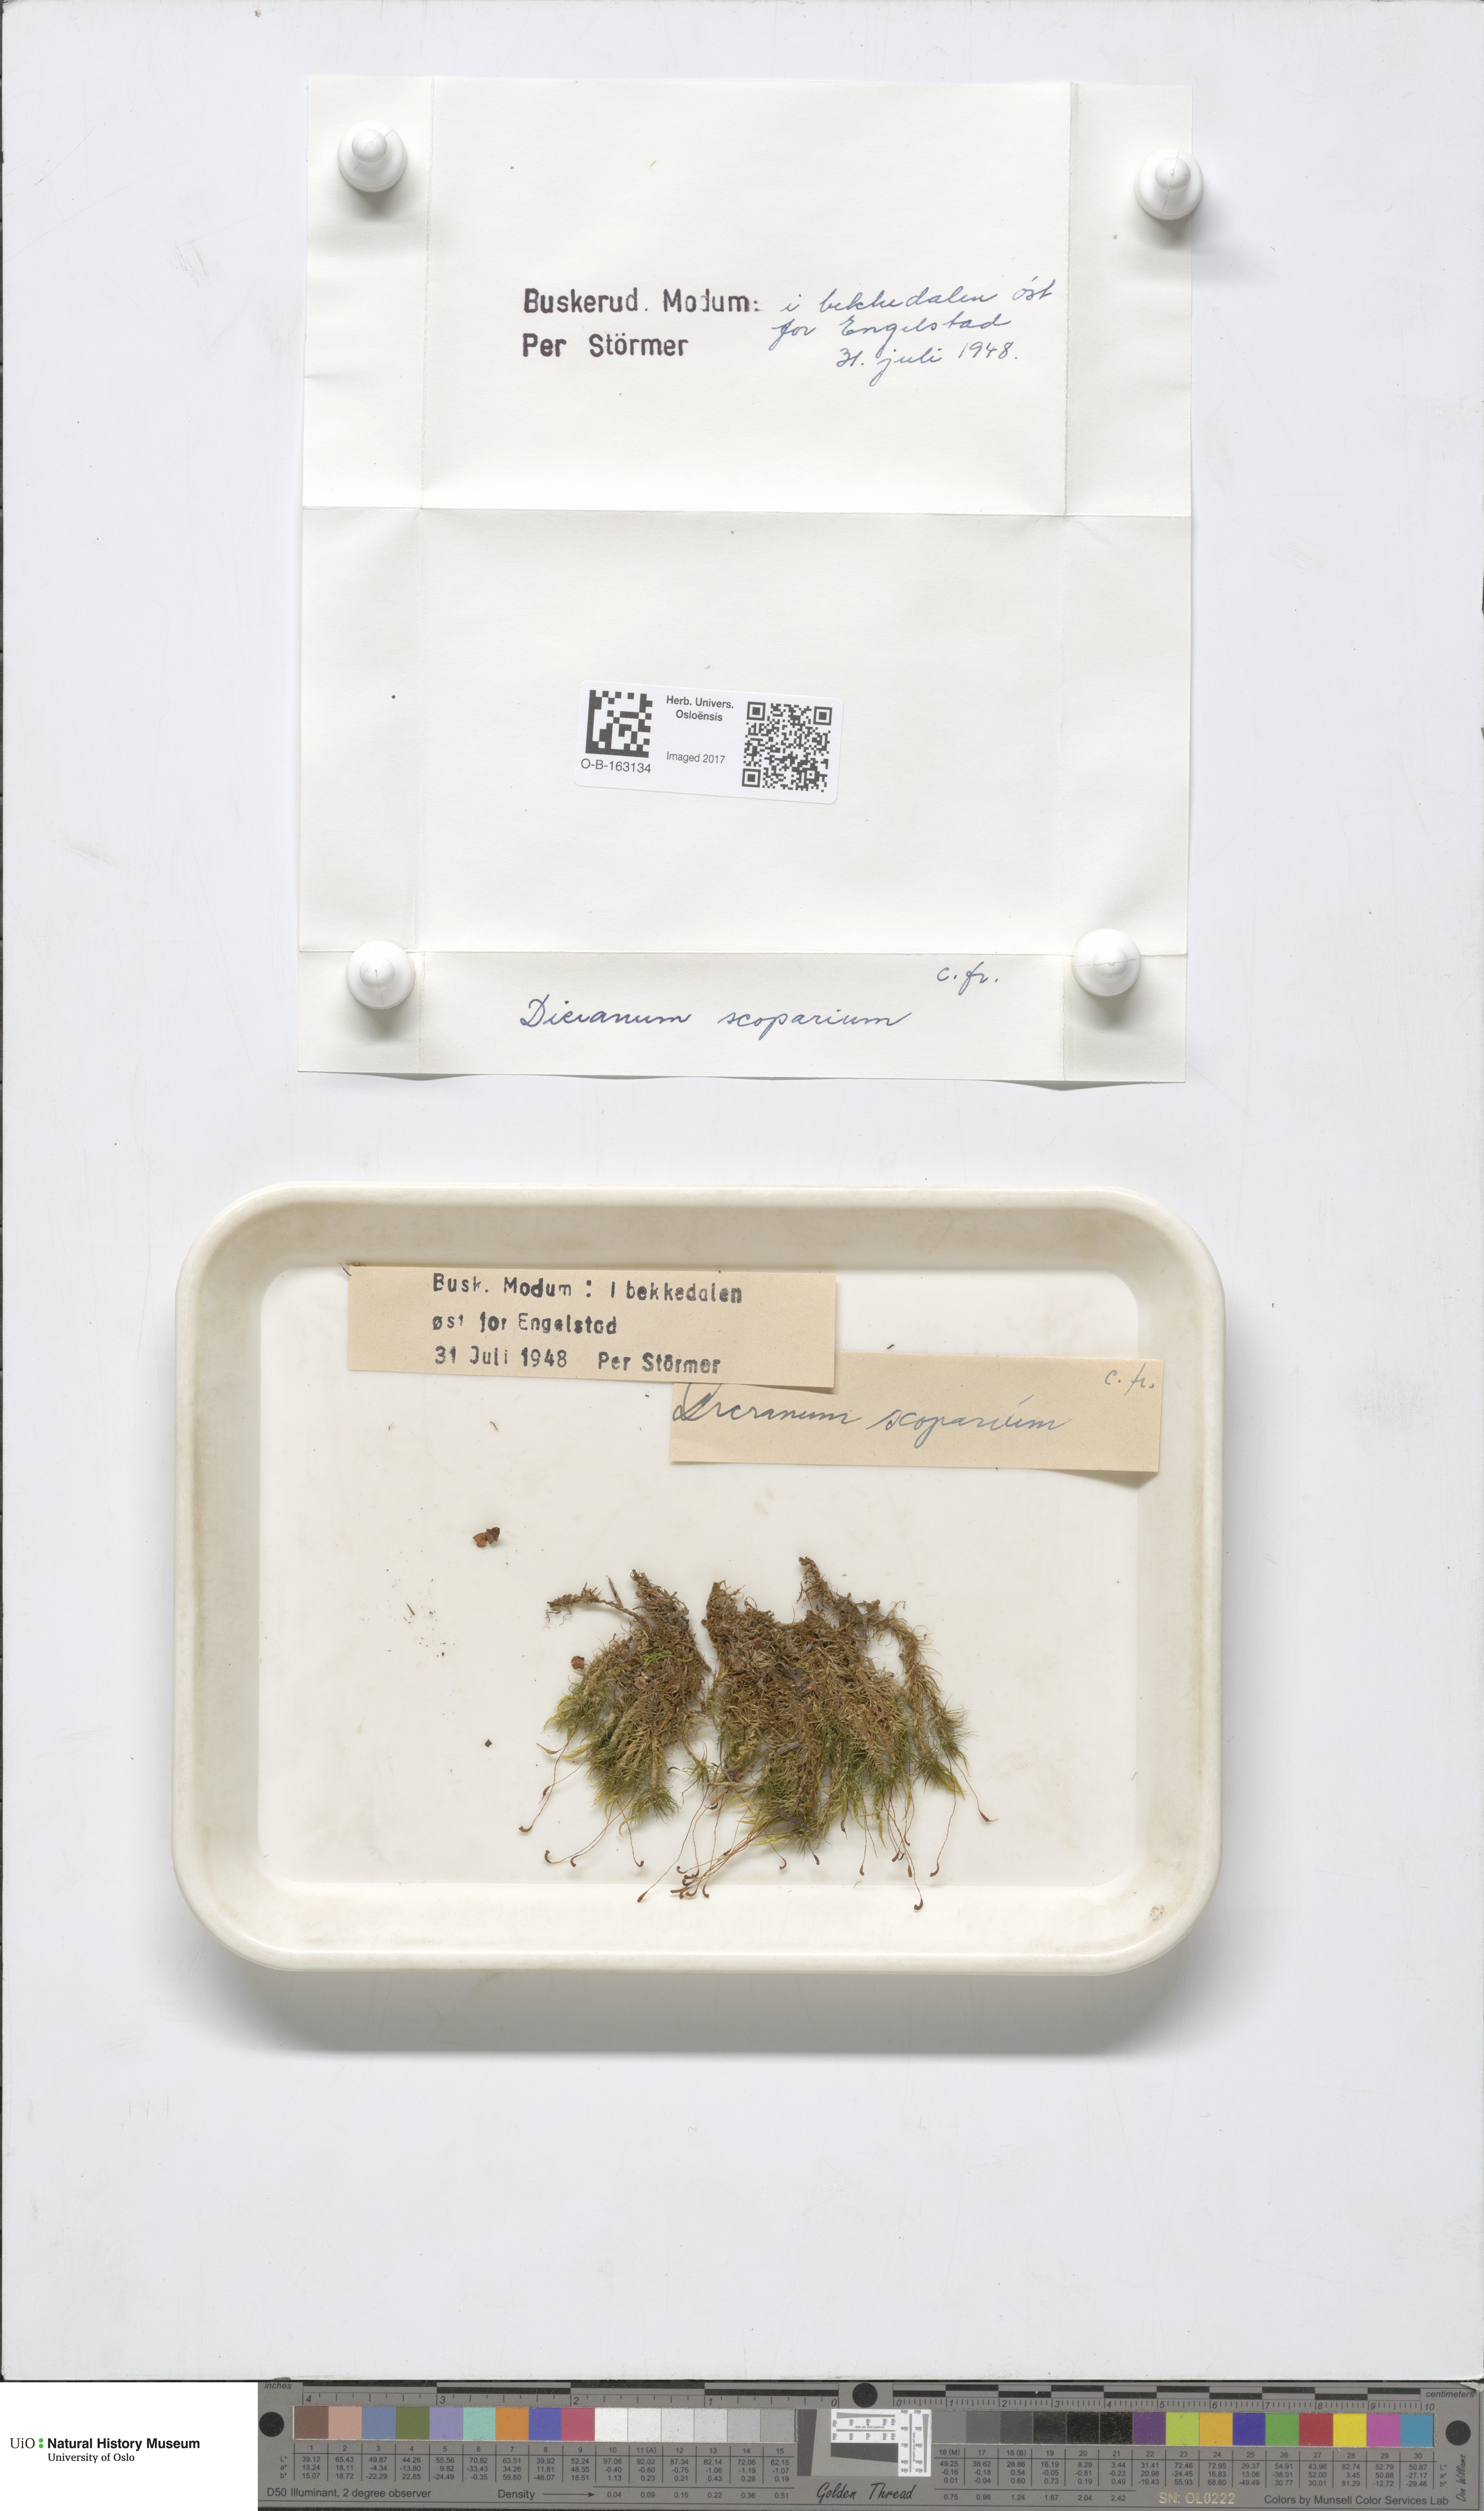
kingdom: Plantae
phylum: Bryophyta
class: Bryopsida
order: Dicranales
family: Dicranaceae
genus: Dicranum
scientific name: Dicranum scoparium
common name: Broom fork-moss
